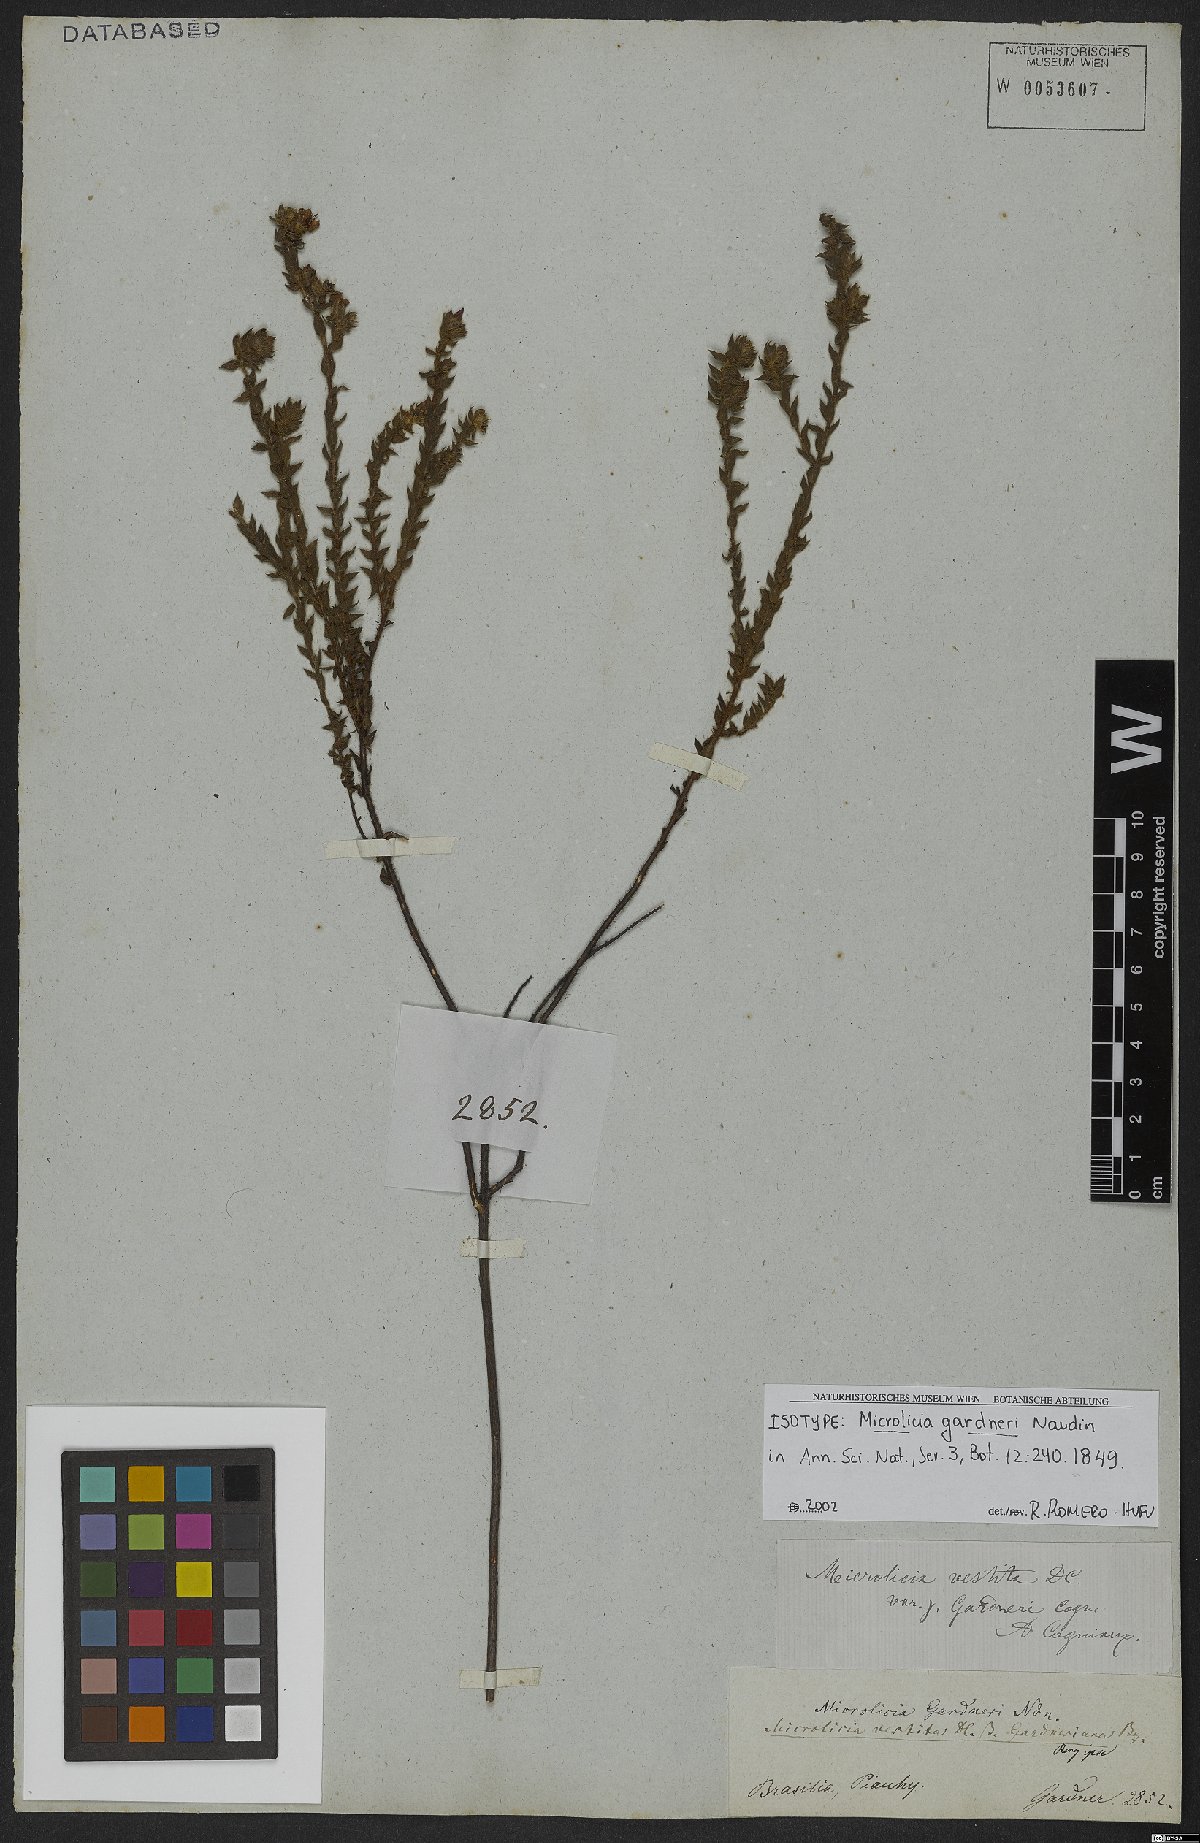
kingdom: Plantae
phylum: Tracheophyta
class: Magnoliopsida
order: Myrtales
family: Melastomataceae
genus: Microlicia
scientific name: Microlicia vestita
